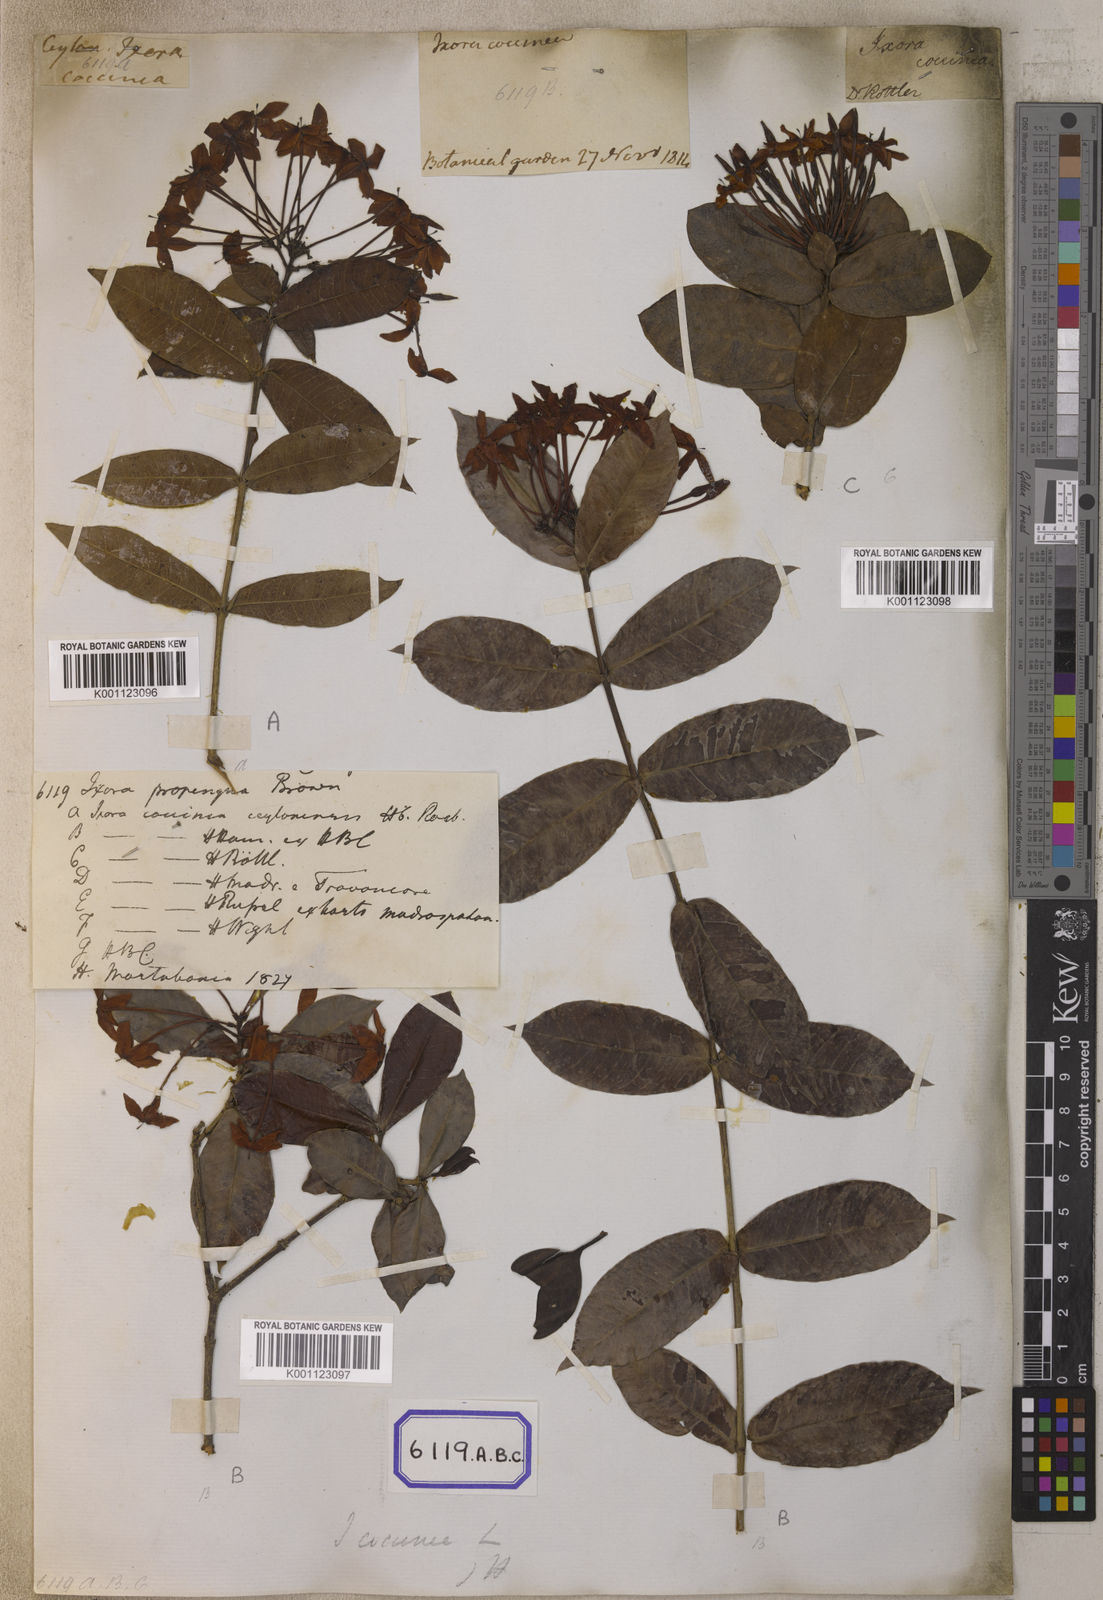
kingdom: Plantae
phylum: Tracheophyta
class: Magnoliopsida
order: Gentianales
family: Rubiaceae
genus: Ixora
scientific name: Ixora
